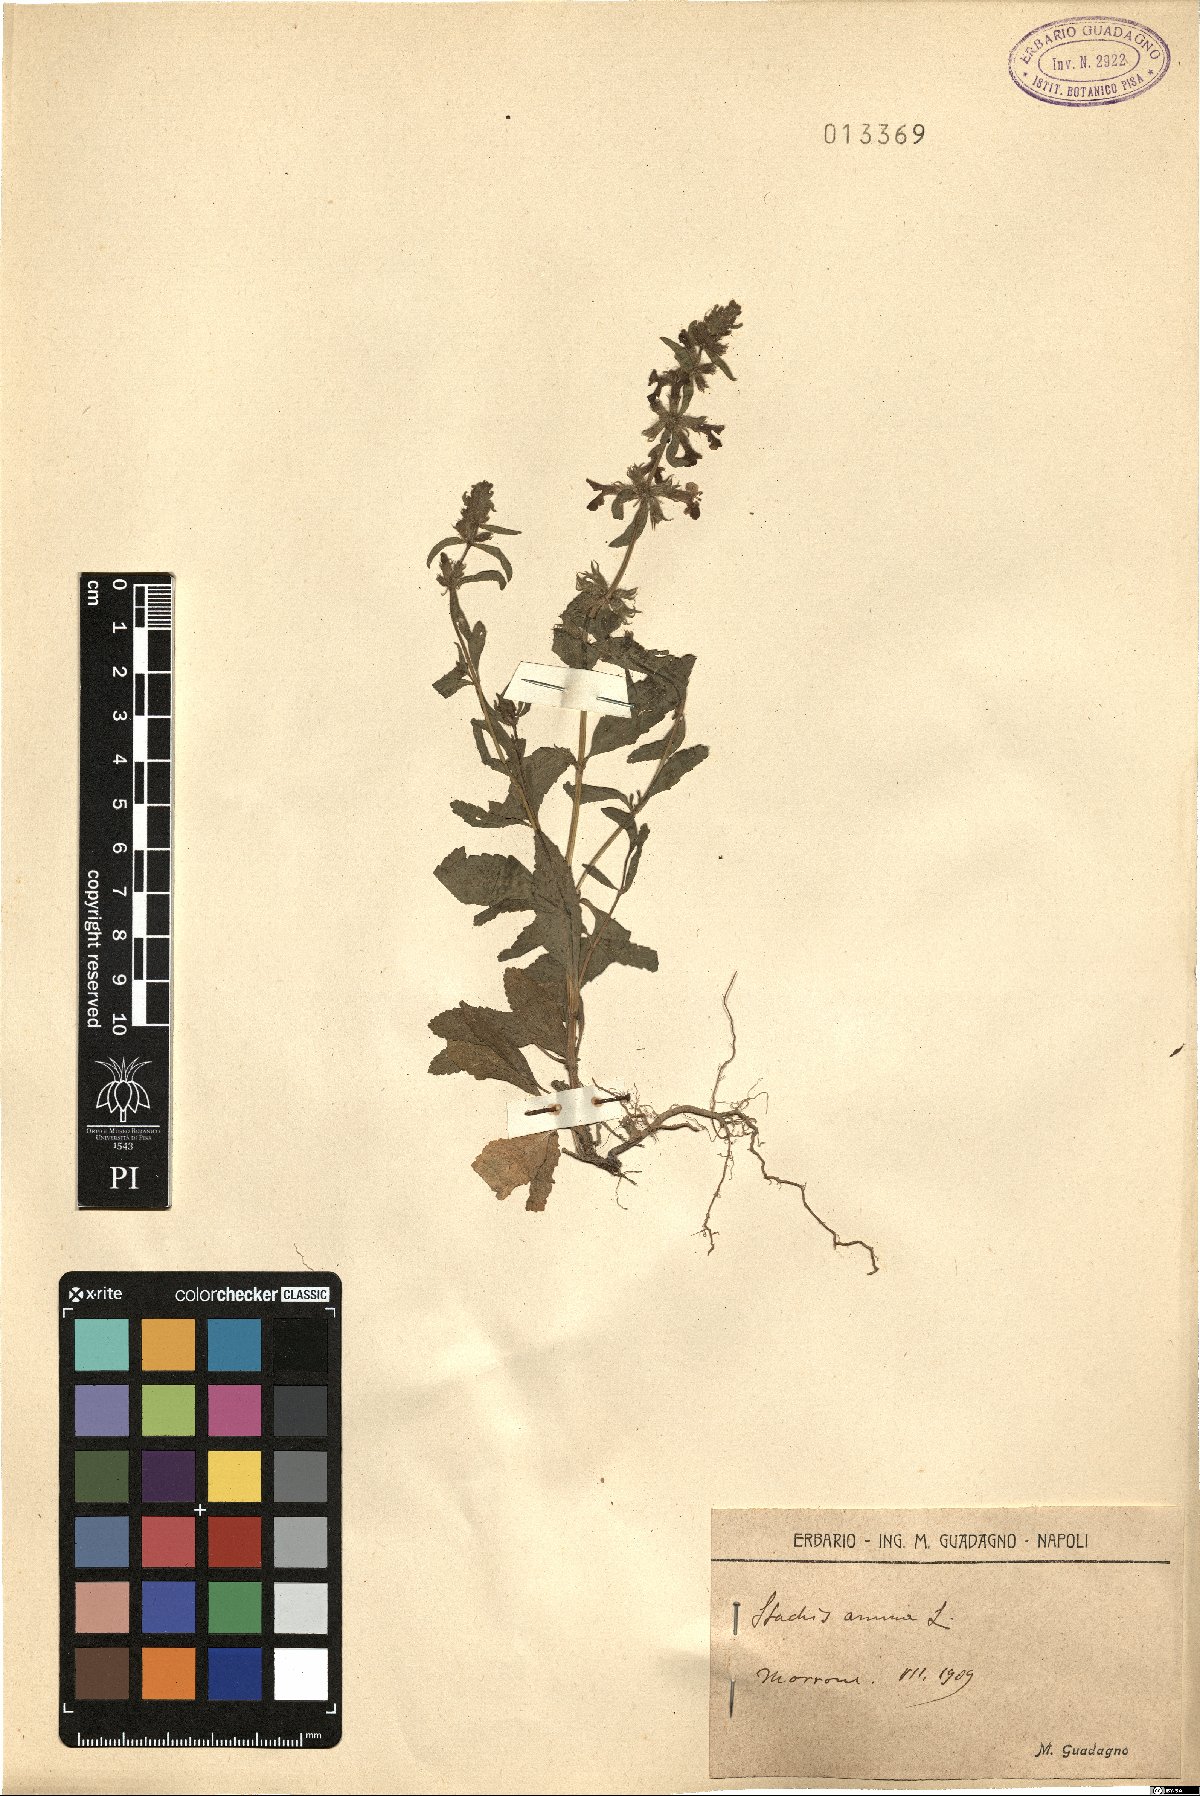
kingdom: Plantae
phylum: Tracheophyta
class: Magnoliopsida
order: Lamiales
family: Lamiaceae
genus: Stachys
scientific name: Stachys annua
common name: Annual yellow-woundwort
